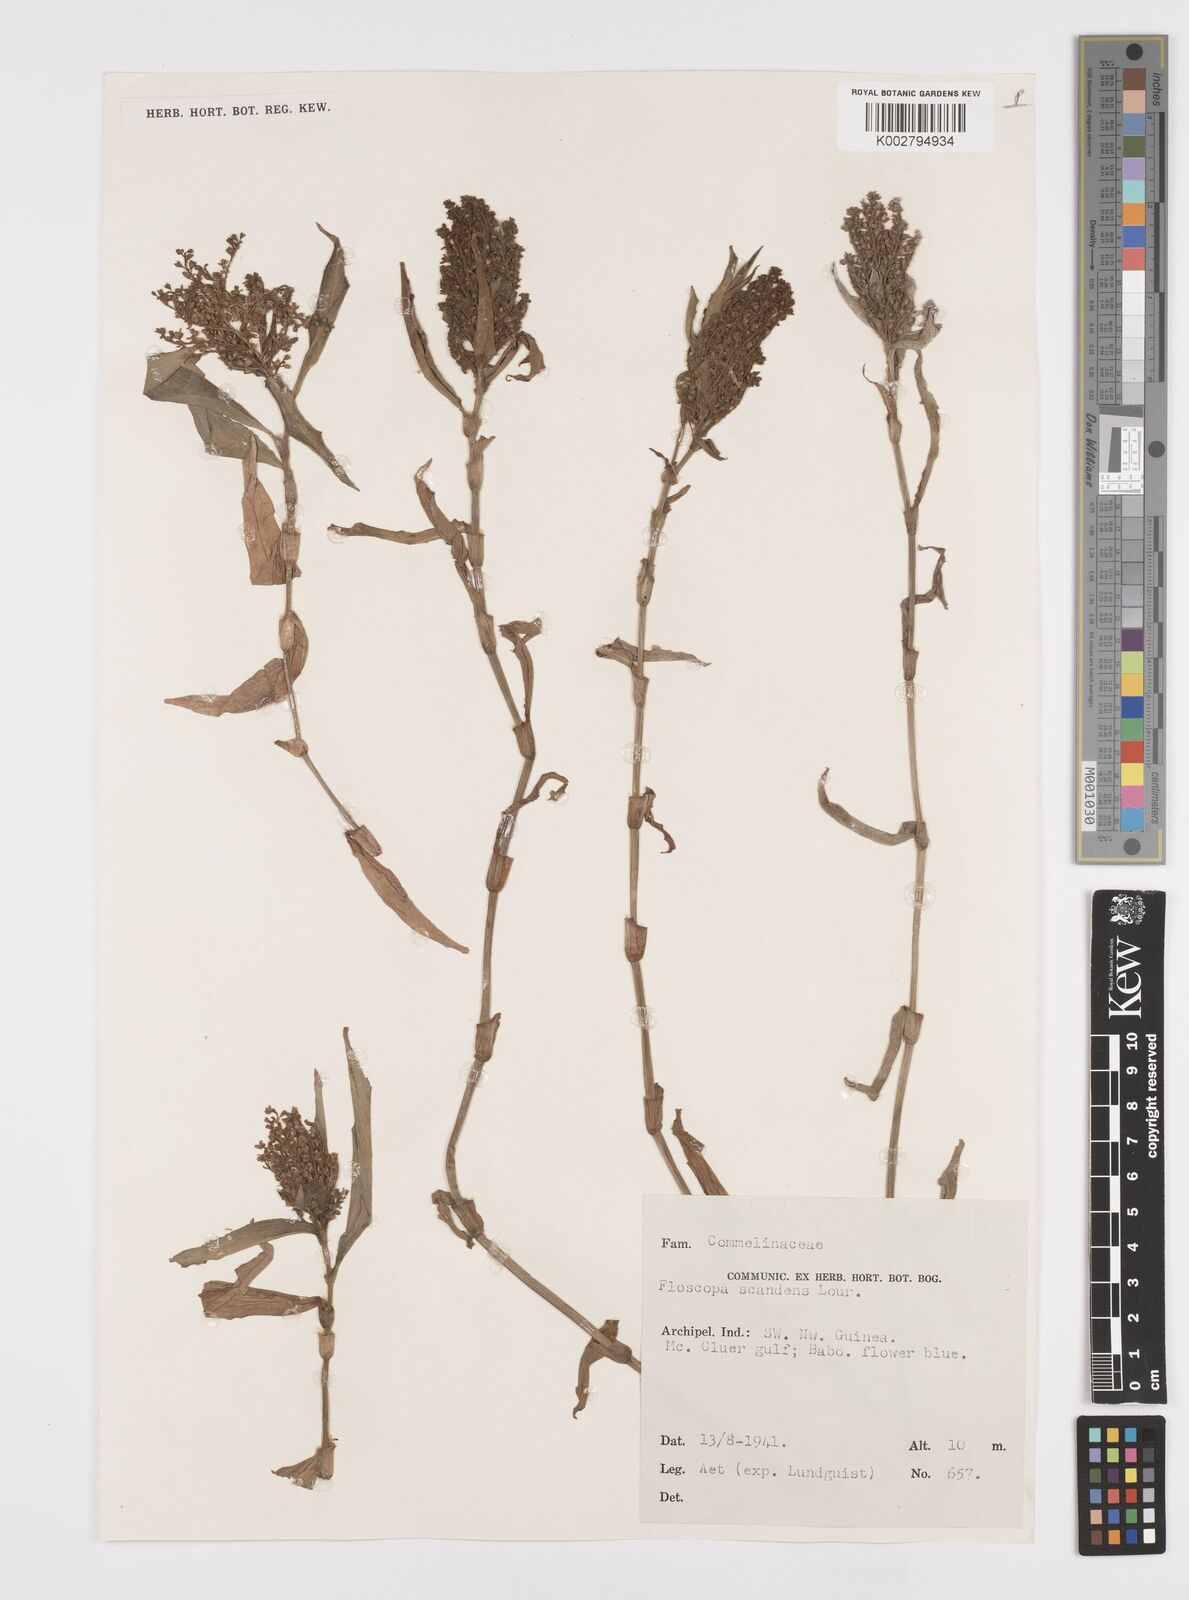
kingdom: Plantae
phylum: Tracheophyta
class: Liliopsida
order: Commelinales
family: Commelinaceae
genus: Floscopa
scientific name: Floscopa scandens
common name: Climbing flower cup
